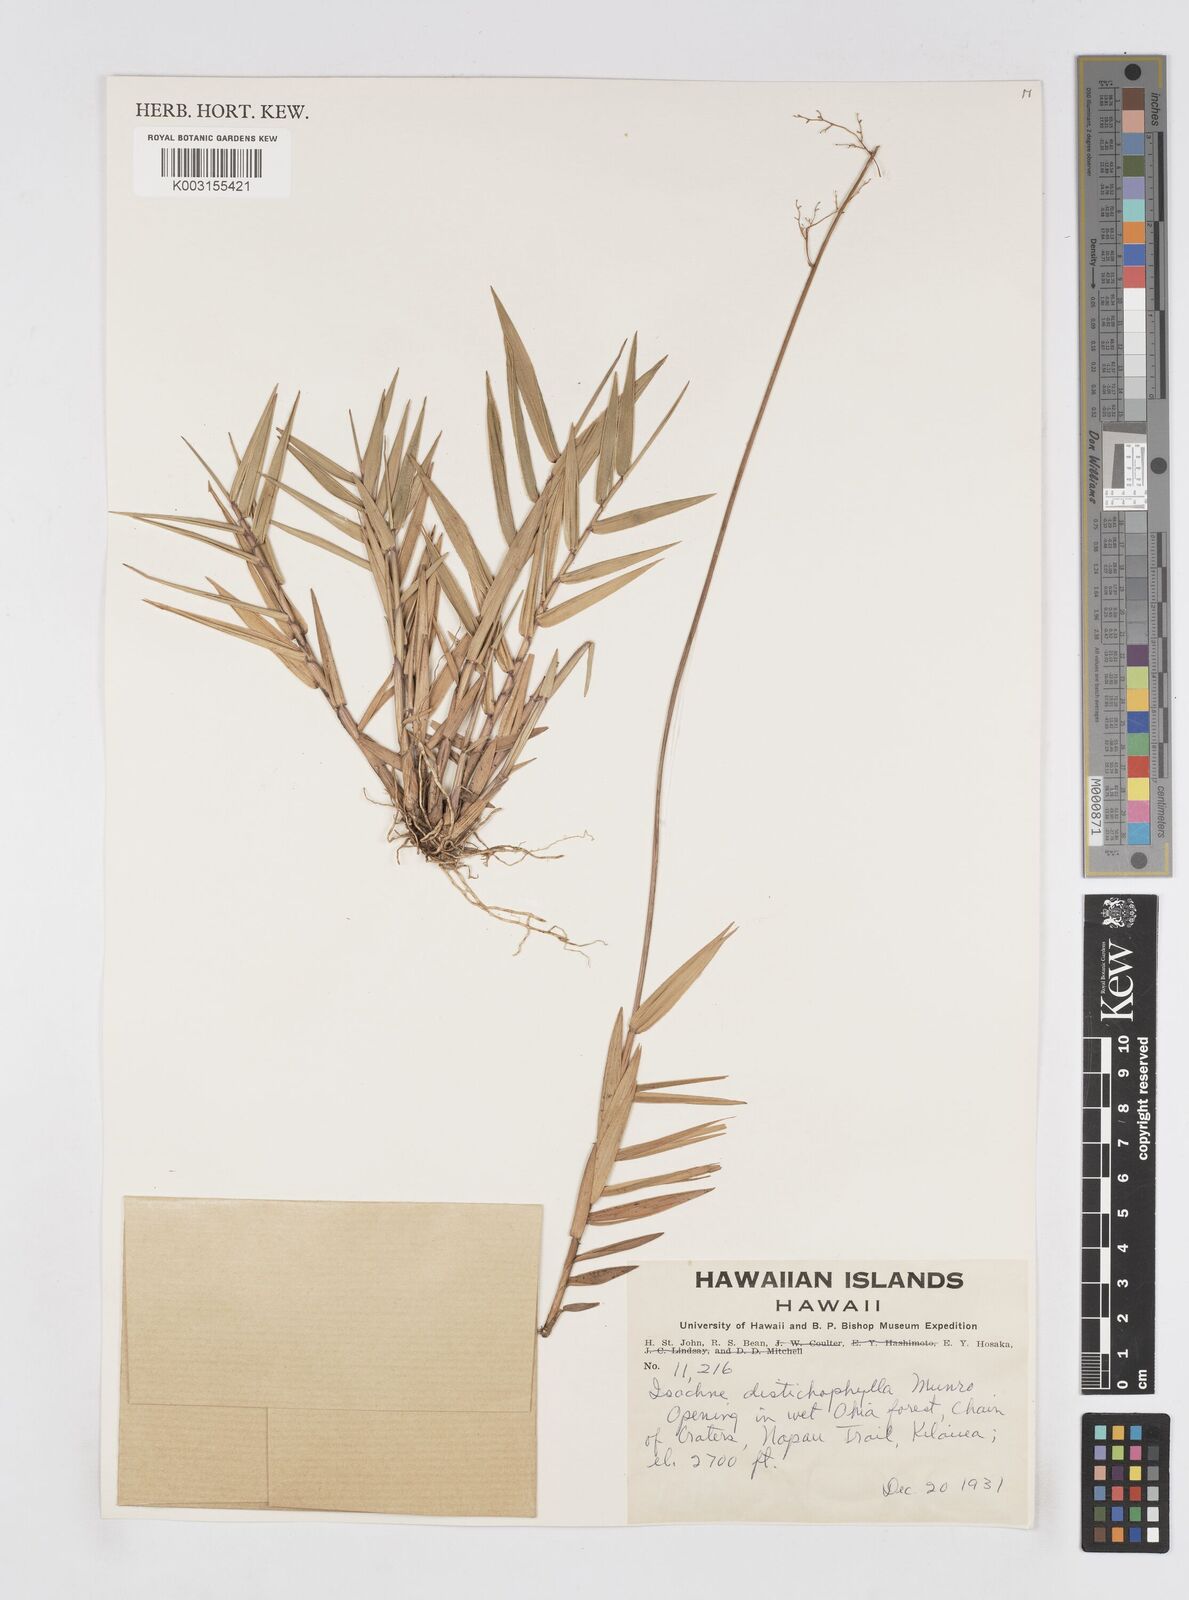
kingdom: Plantae
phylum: Tracheophyta
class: Liliopsida
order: Poales
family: Poaceae
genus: Isachne
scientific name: Isachne distichophylla
